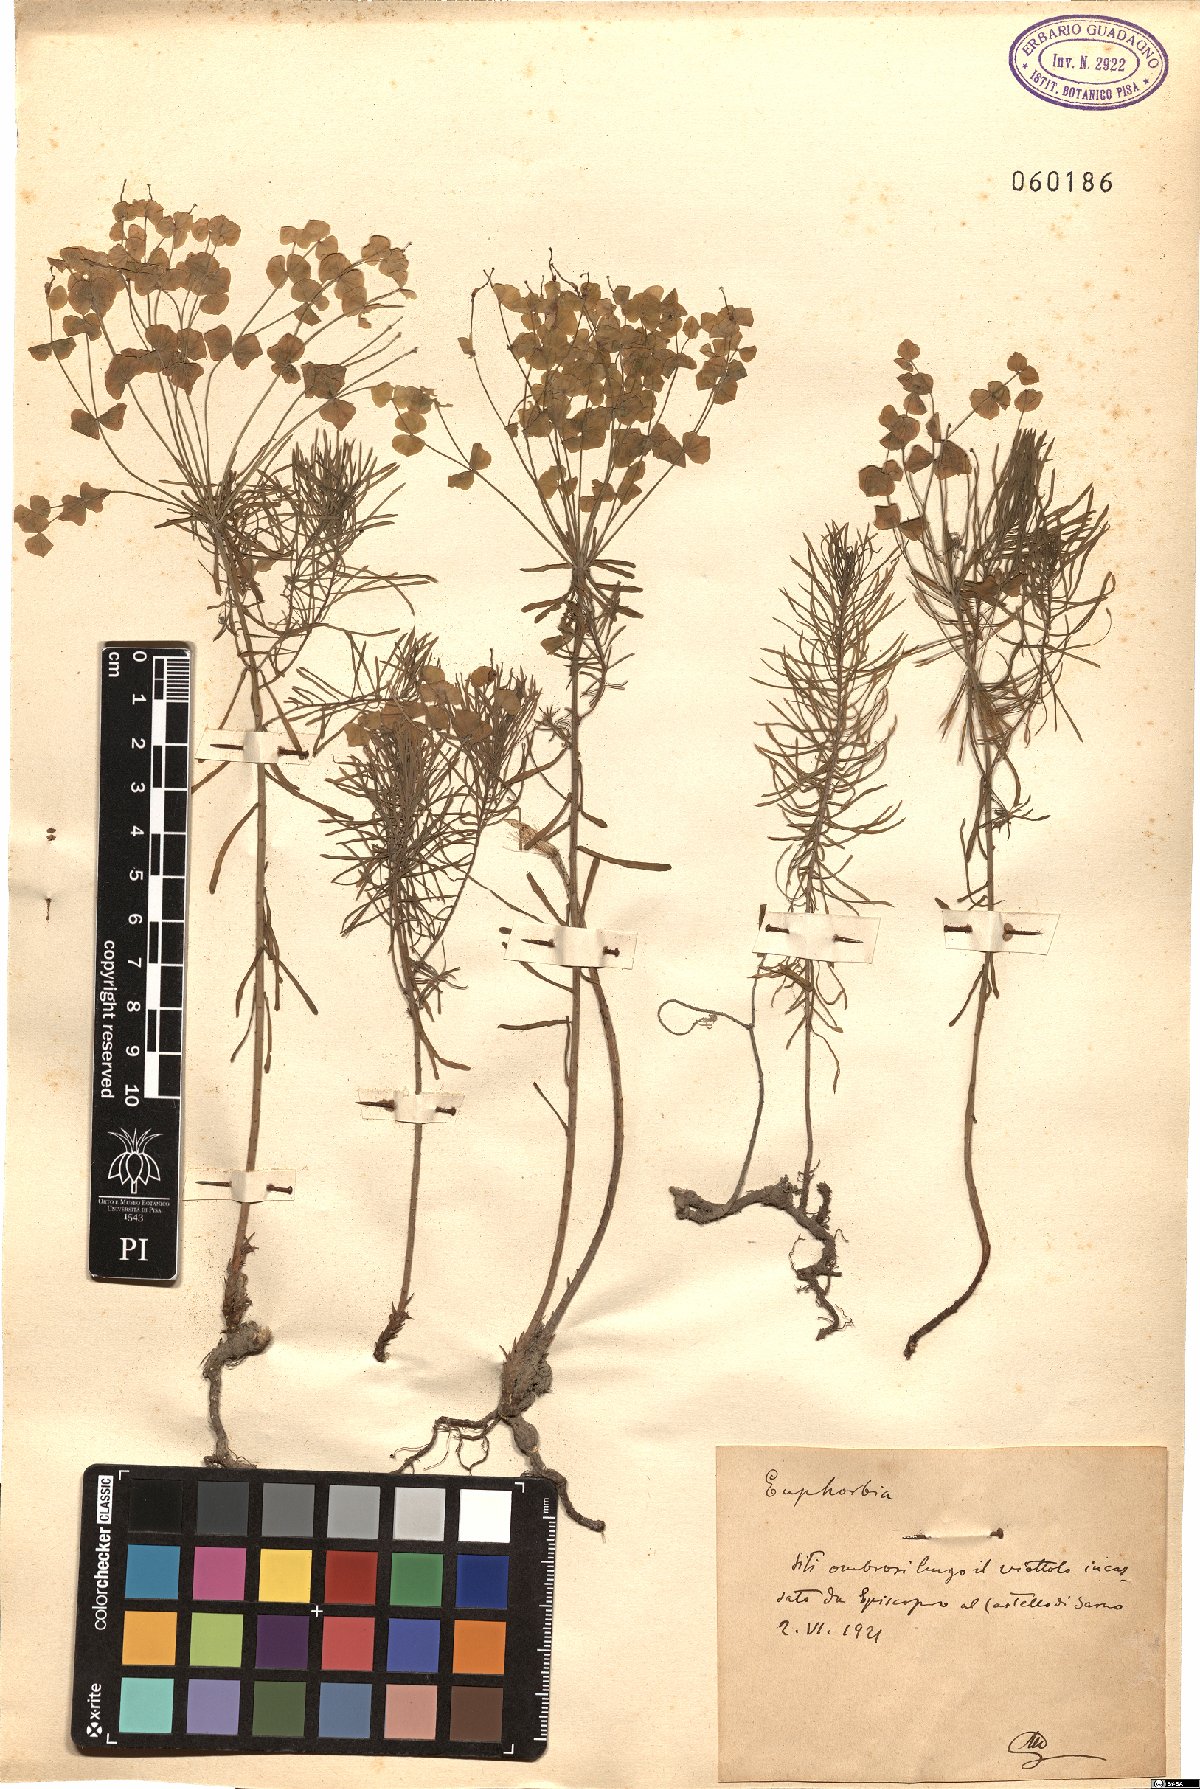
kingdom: Plantae
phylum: Tracheophyta
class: Magnoliopsida
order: Malpighiales
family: Euphorbiaceae
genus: Euphorbia
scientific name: Euphorbia
